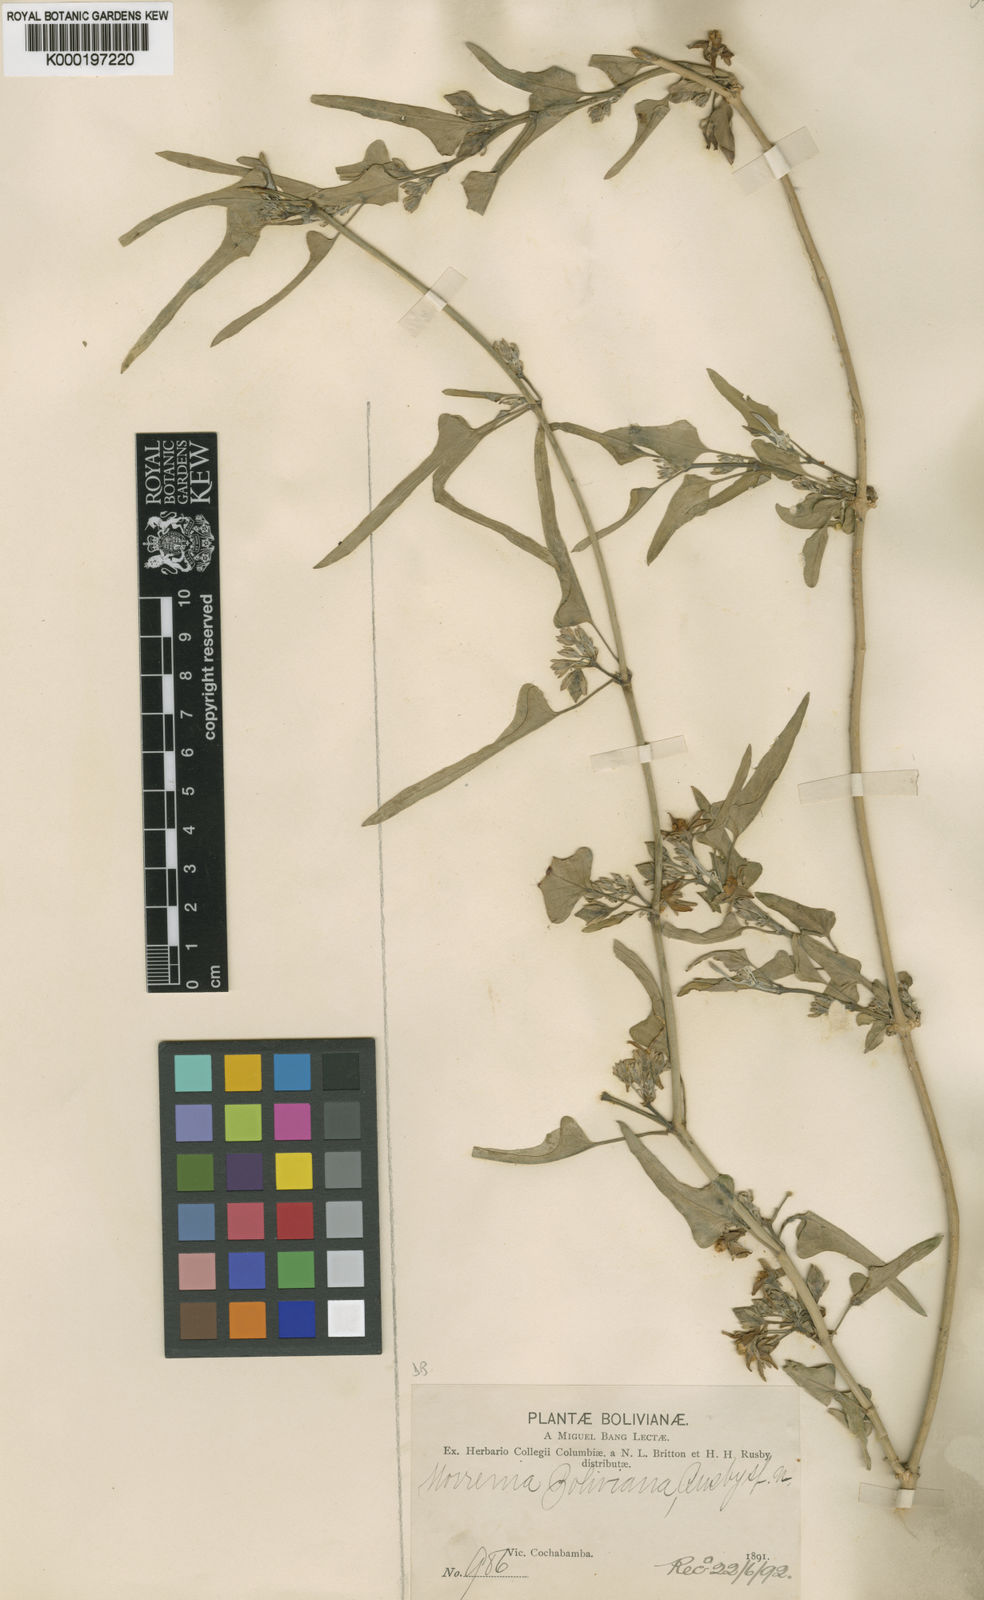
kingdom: Plantae
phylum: Tracheophyta
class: Magnoliopsida
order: Gentianales
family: Apocynaceae
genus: Araujia
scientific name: Araujia odorata
